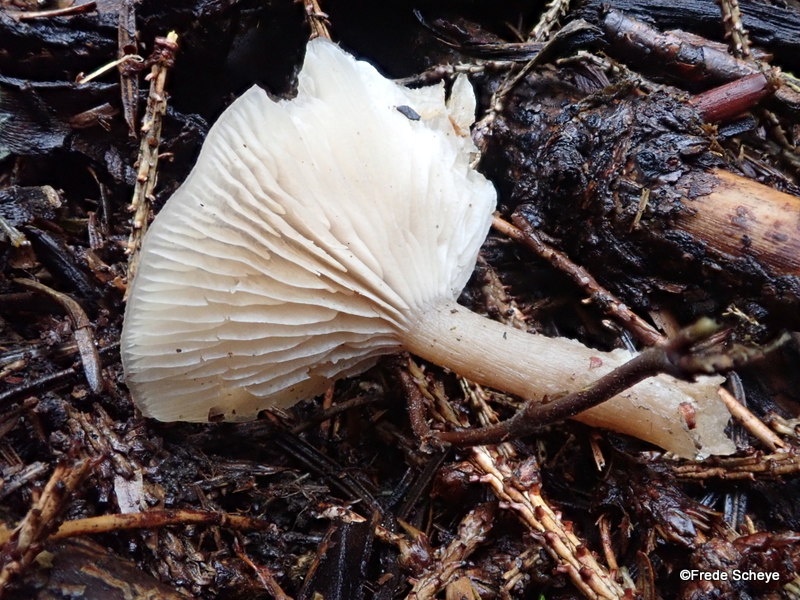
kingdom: Fungi
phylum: Basidiomycota
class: Agaricomycetes
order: Agaricales
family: Tricholomataceae
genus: Clitocybe
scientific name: Clitocybe fragrans
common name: vellugtende tragthat
